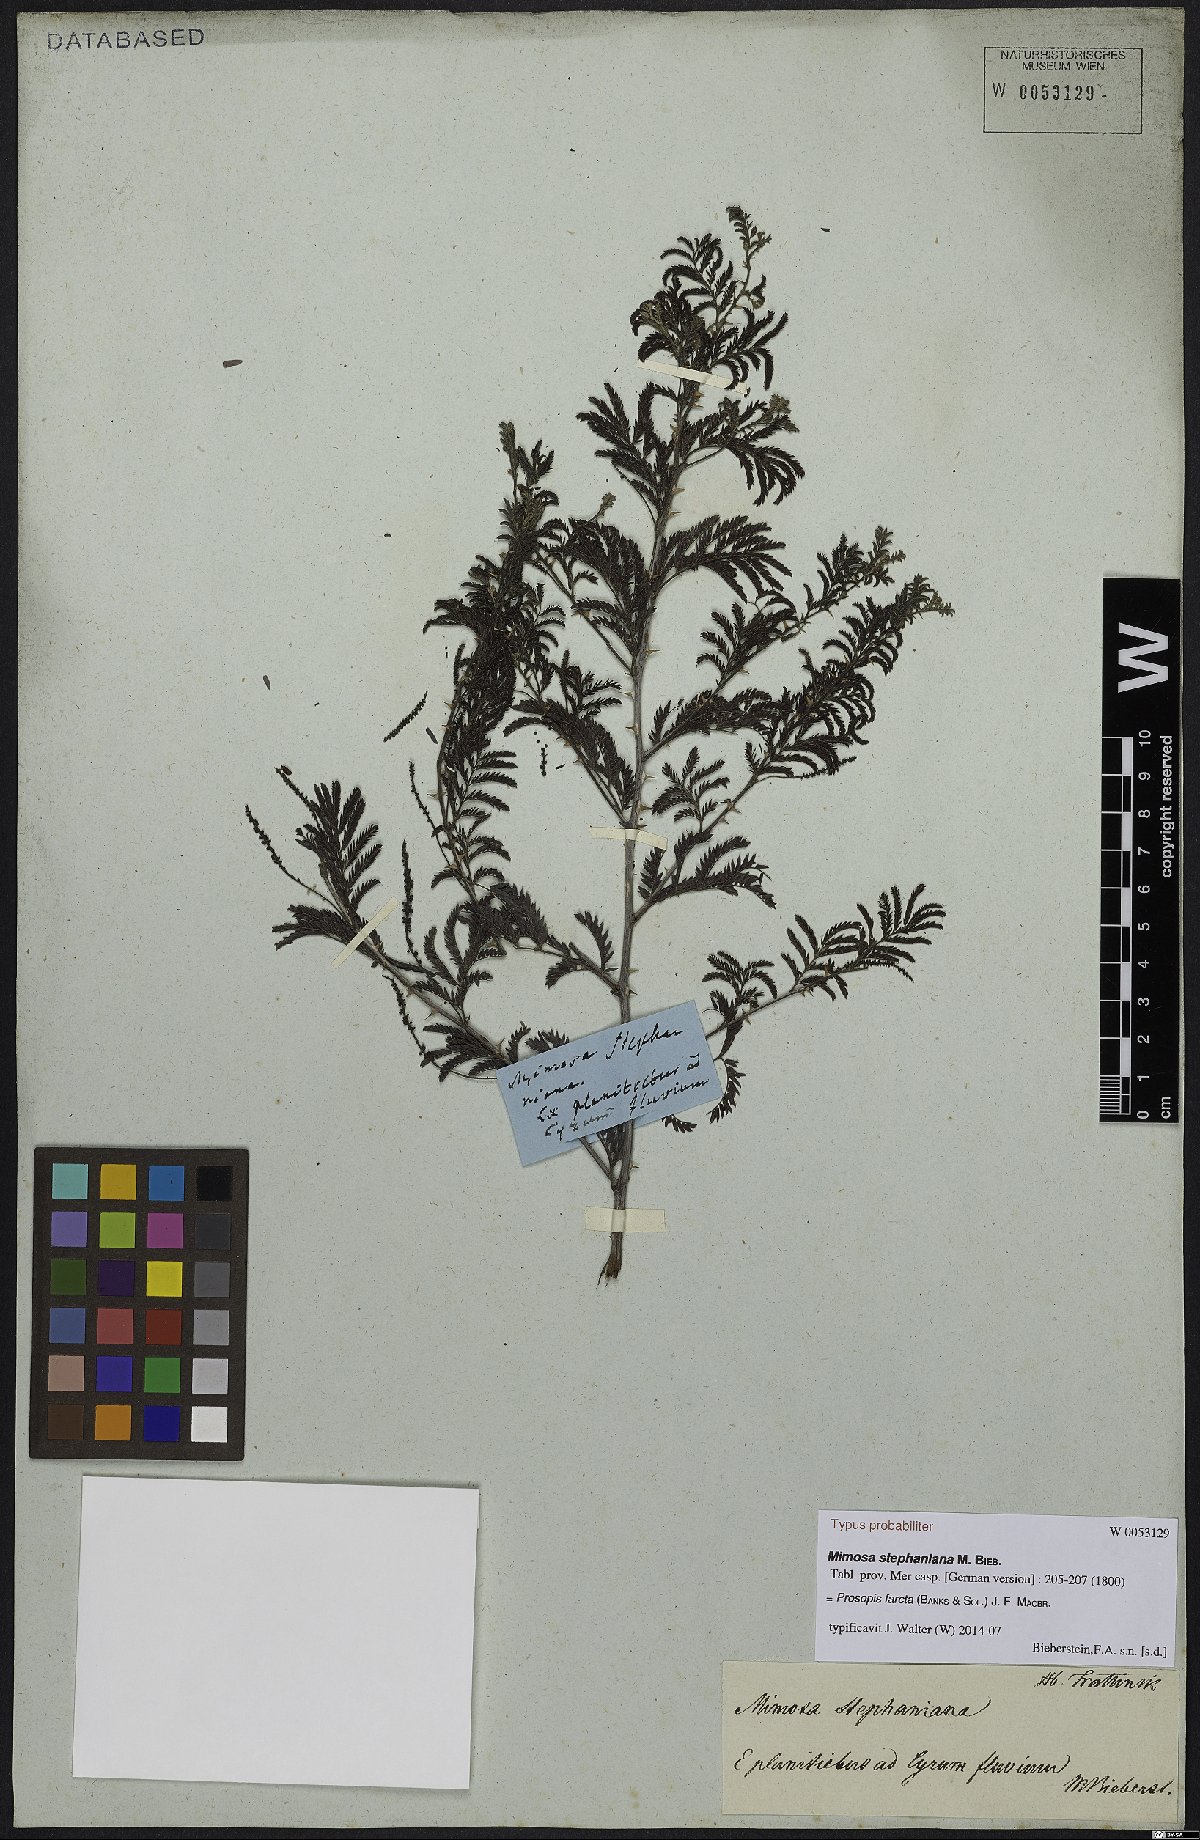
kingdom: Plantae
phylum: Tracheophyta
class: Magnoliopsida
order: Fabales
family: Fabaceae
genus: Prosopis
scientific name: Prosopis farcta
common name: Syrian mesquite
